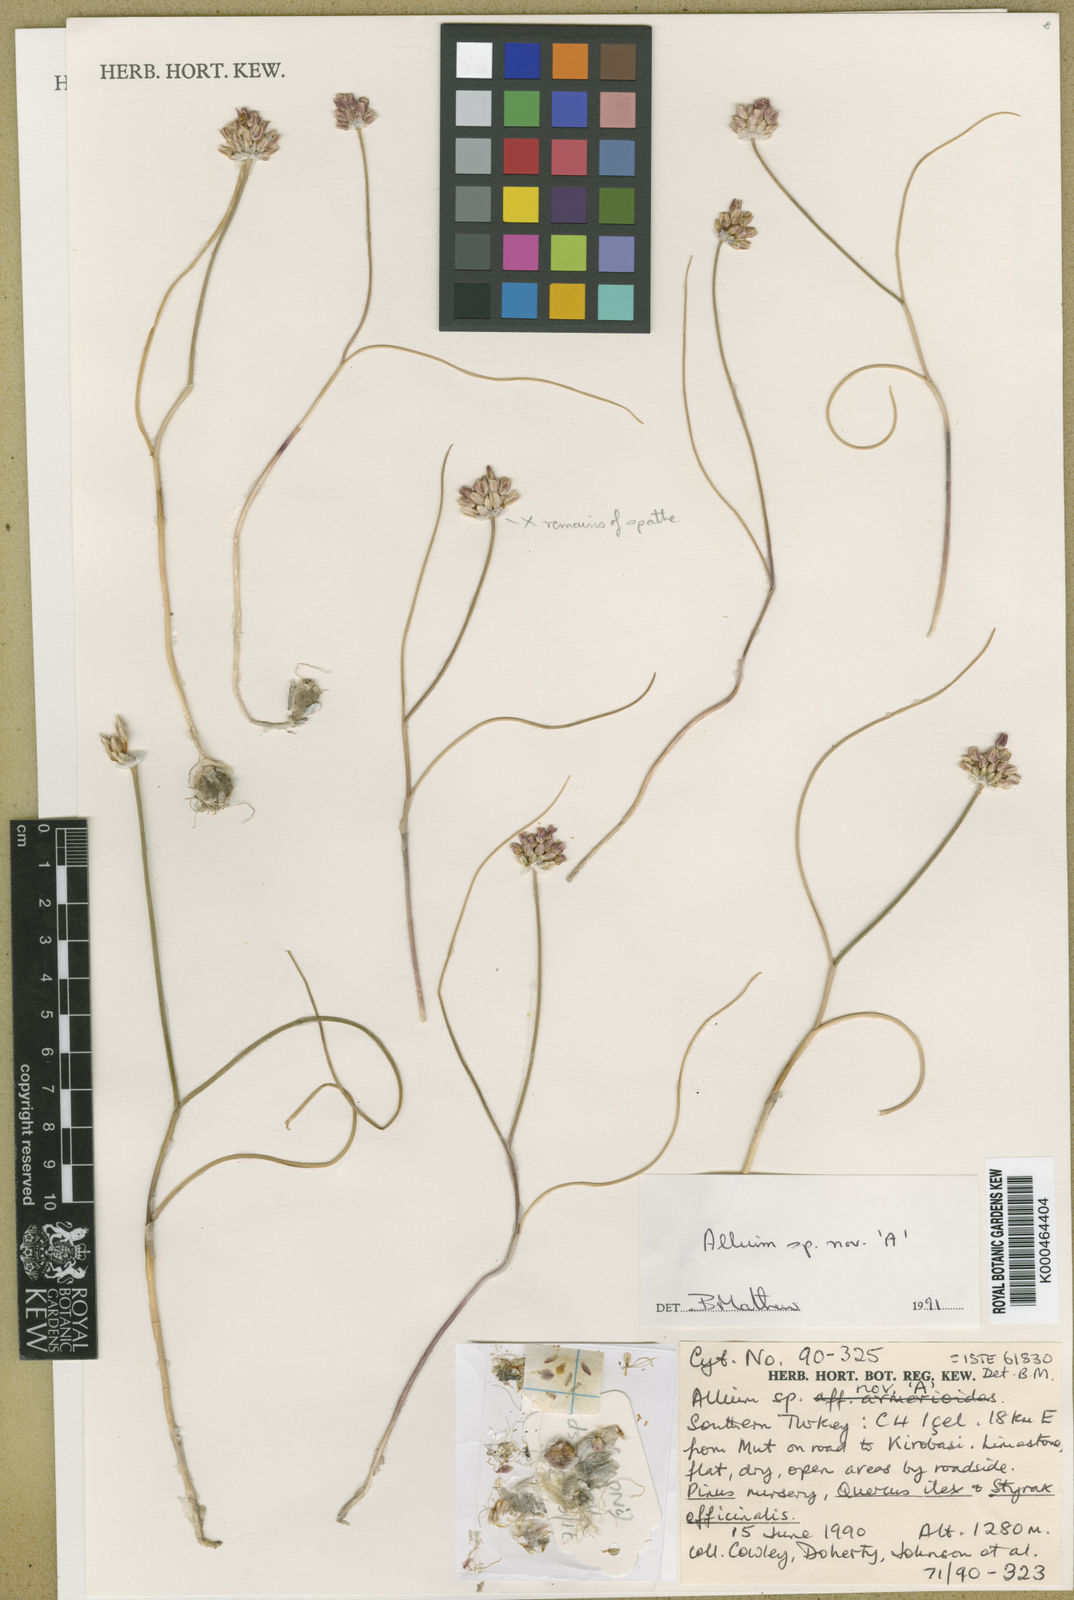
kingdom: Plantae
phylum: Tracheophyta
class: Liliopsida
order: Asparagales
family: Amaryllidaceae
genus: Allium
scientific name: Allium
